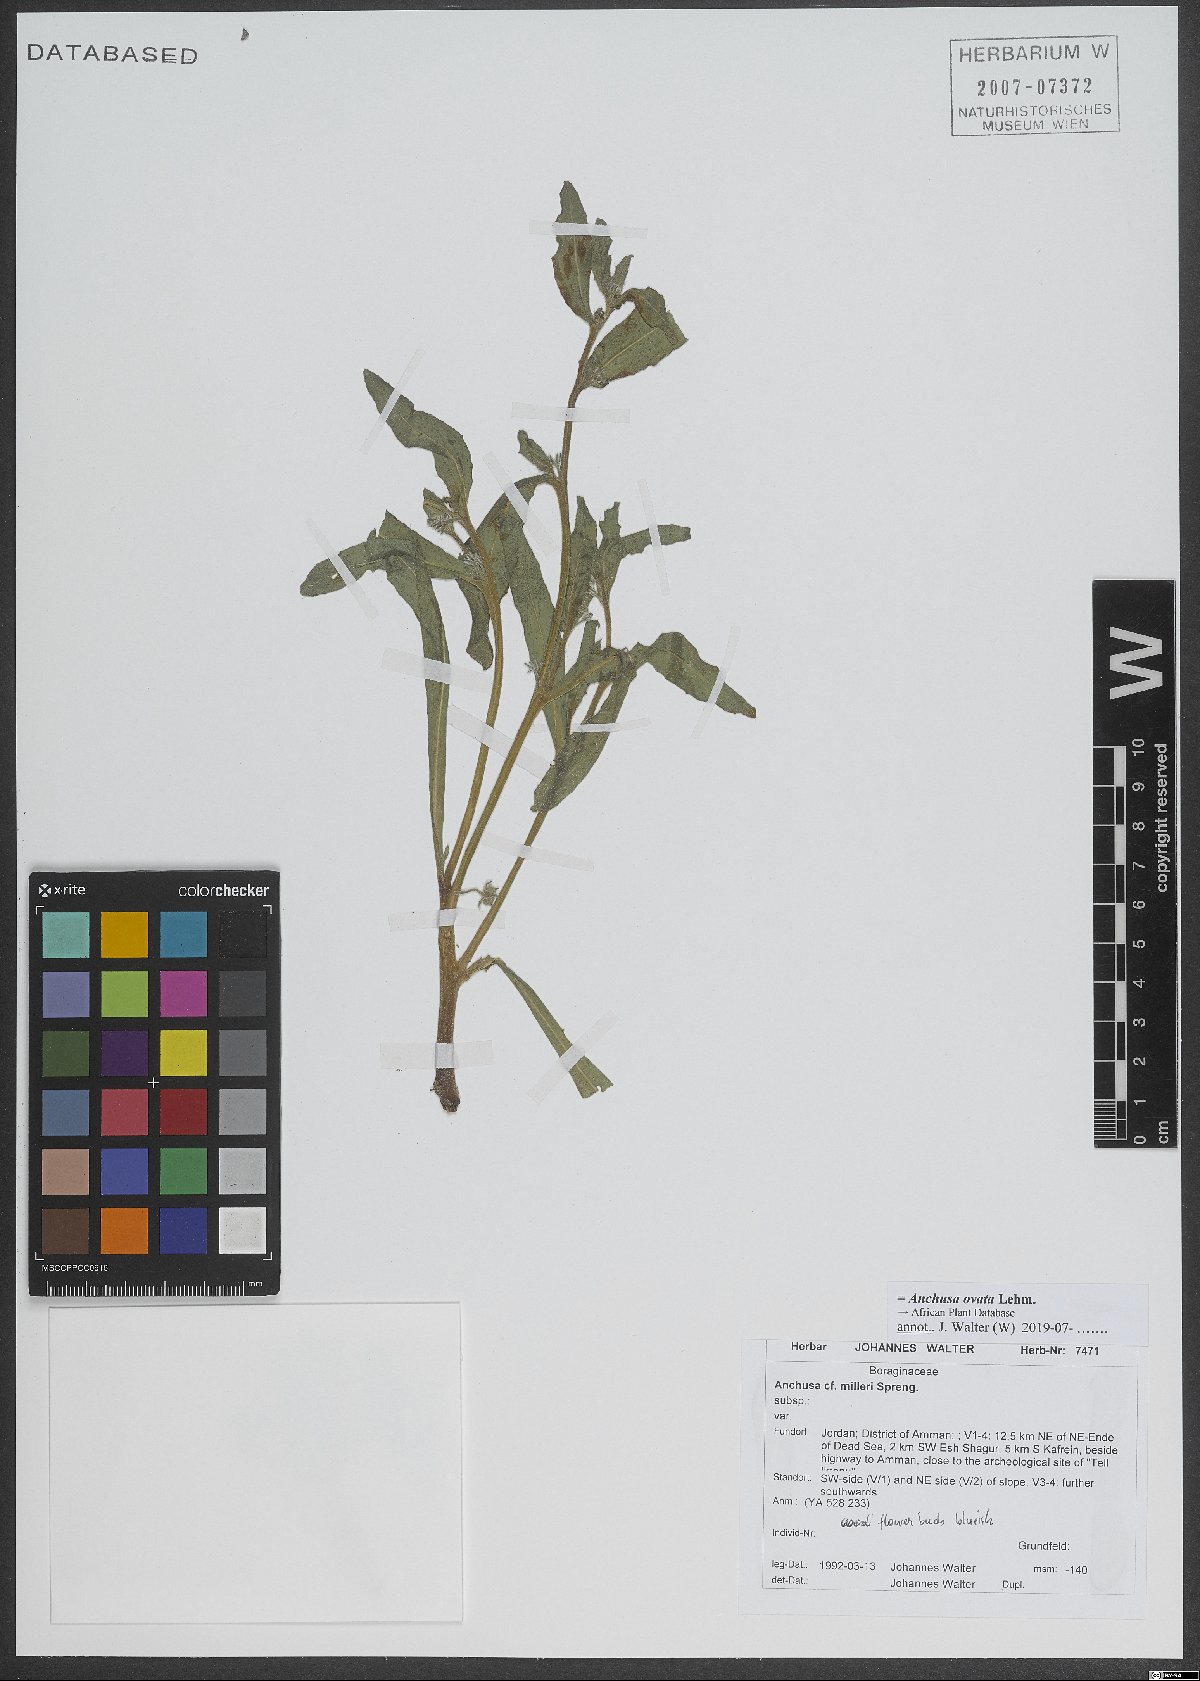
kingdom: Plantae
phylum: Tracheophyta
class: Magnoliopsida
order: Boraginales
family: Boraginaceae
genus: Lycopsis
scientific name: Lycopsis arvensis
